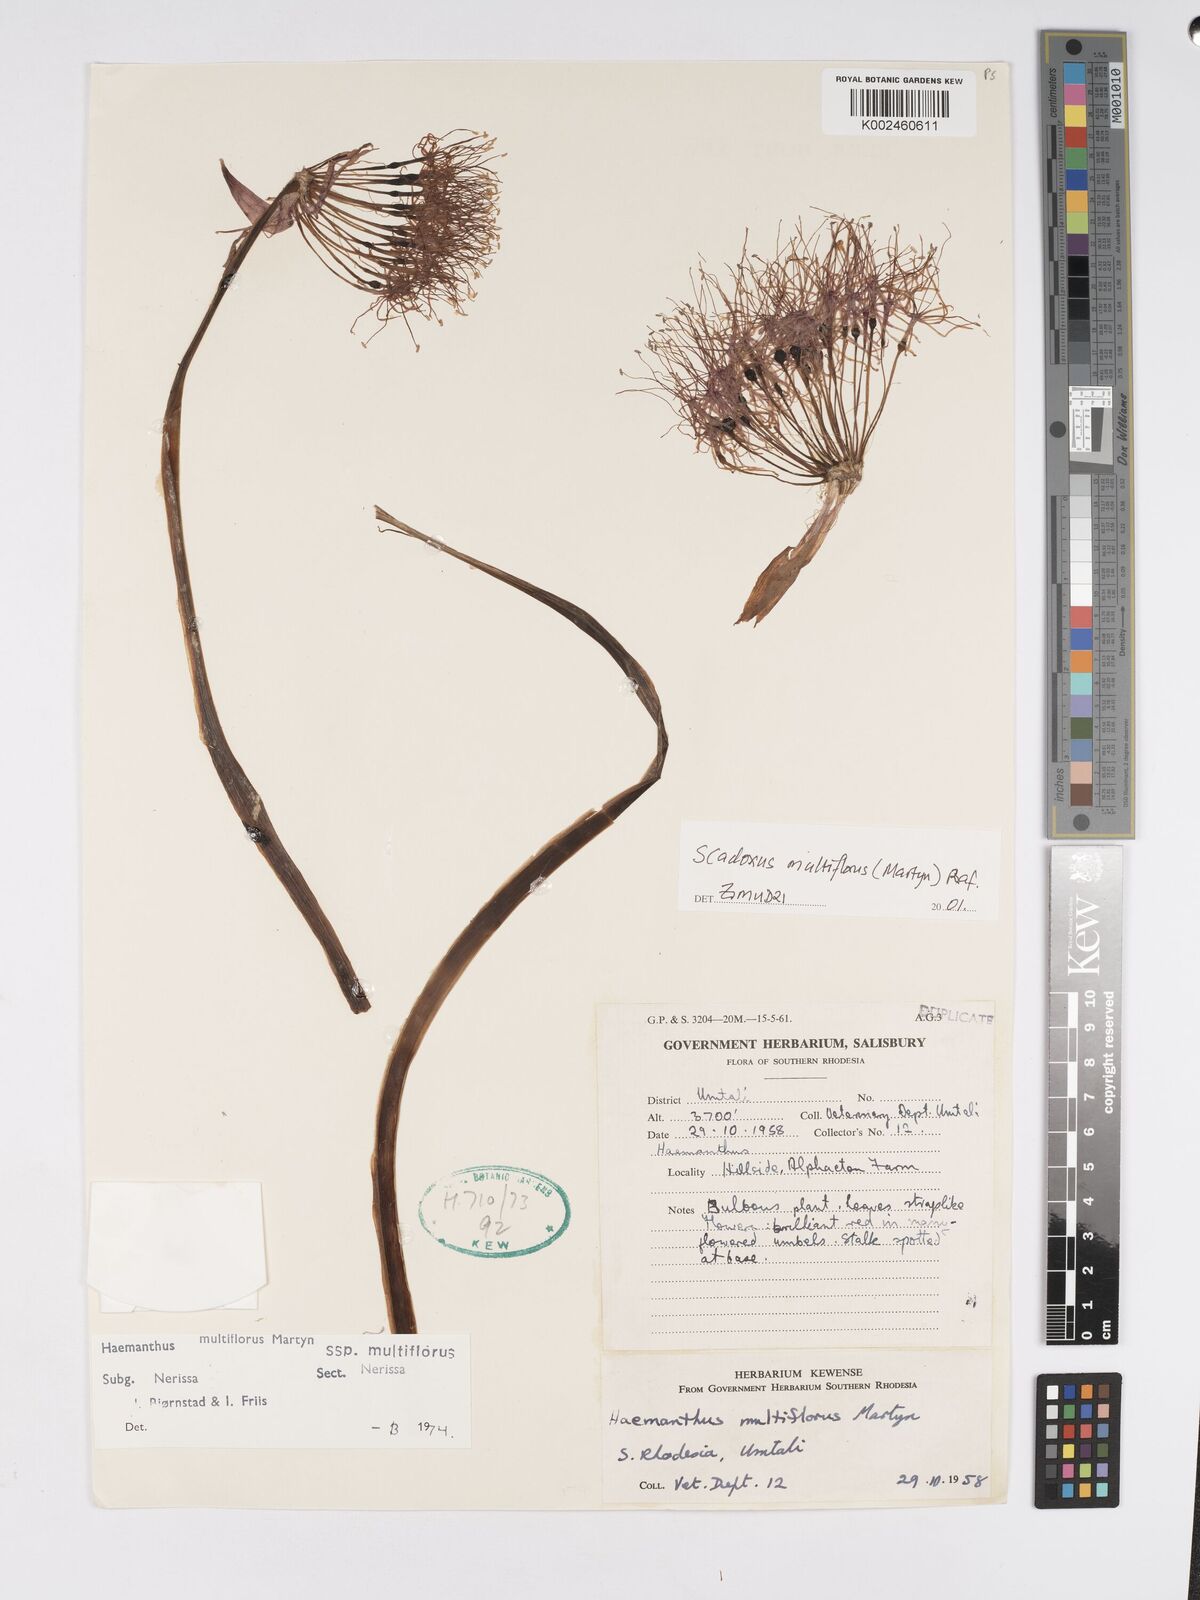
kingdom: Plantae
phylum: Tracheophyta
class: Liliopsida
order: Asparagales
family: Amaryllidaceae
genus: Scadoxus
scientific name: Scadoxus multiflorus
